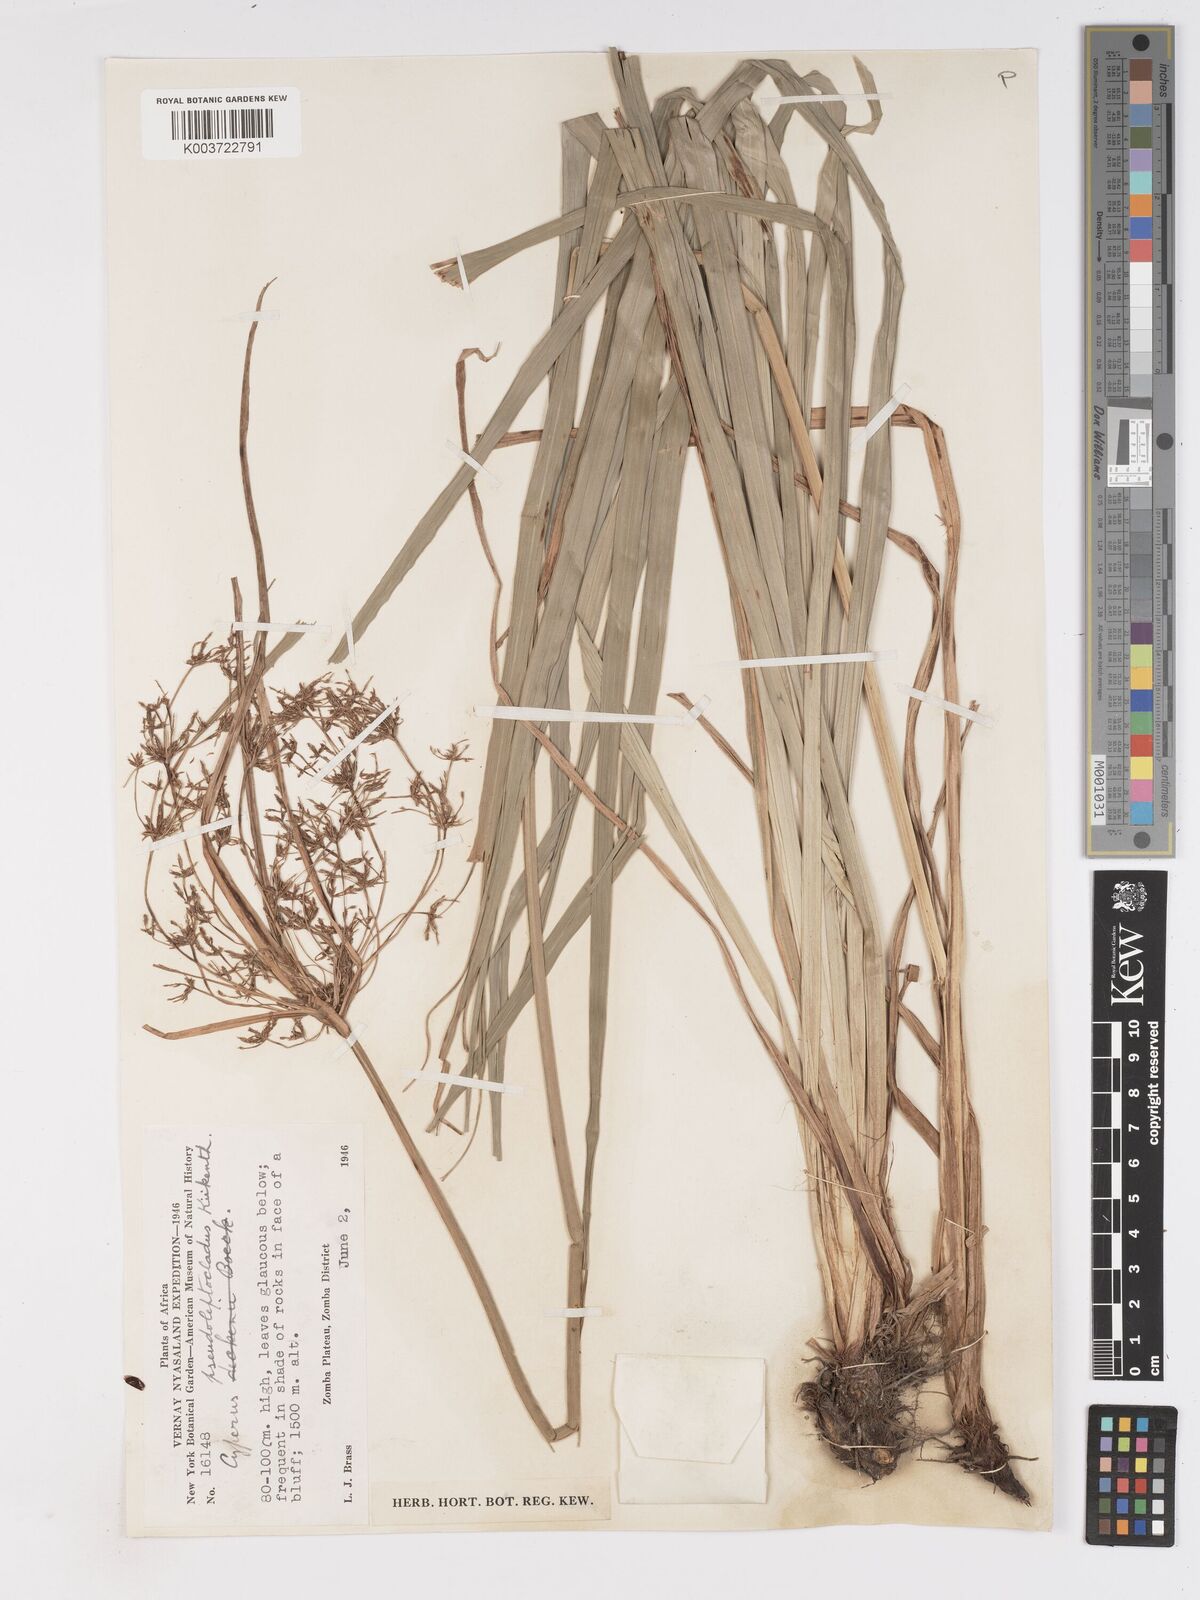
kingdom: Plantae
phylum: Tracheophyta
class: Liliopsida
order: Poales
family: Cyperaceae
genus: Cyperus
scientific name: Cyperus glaucophyllus
